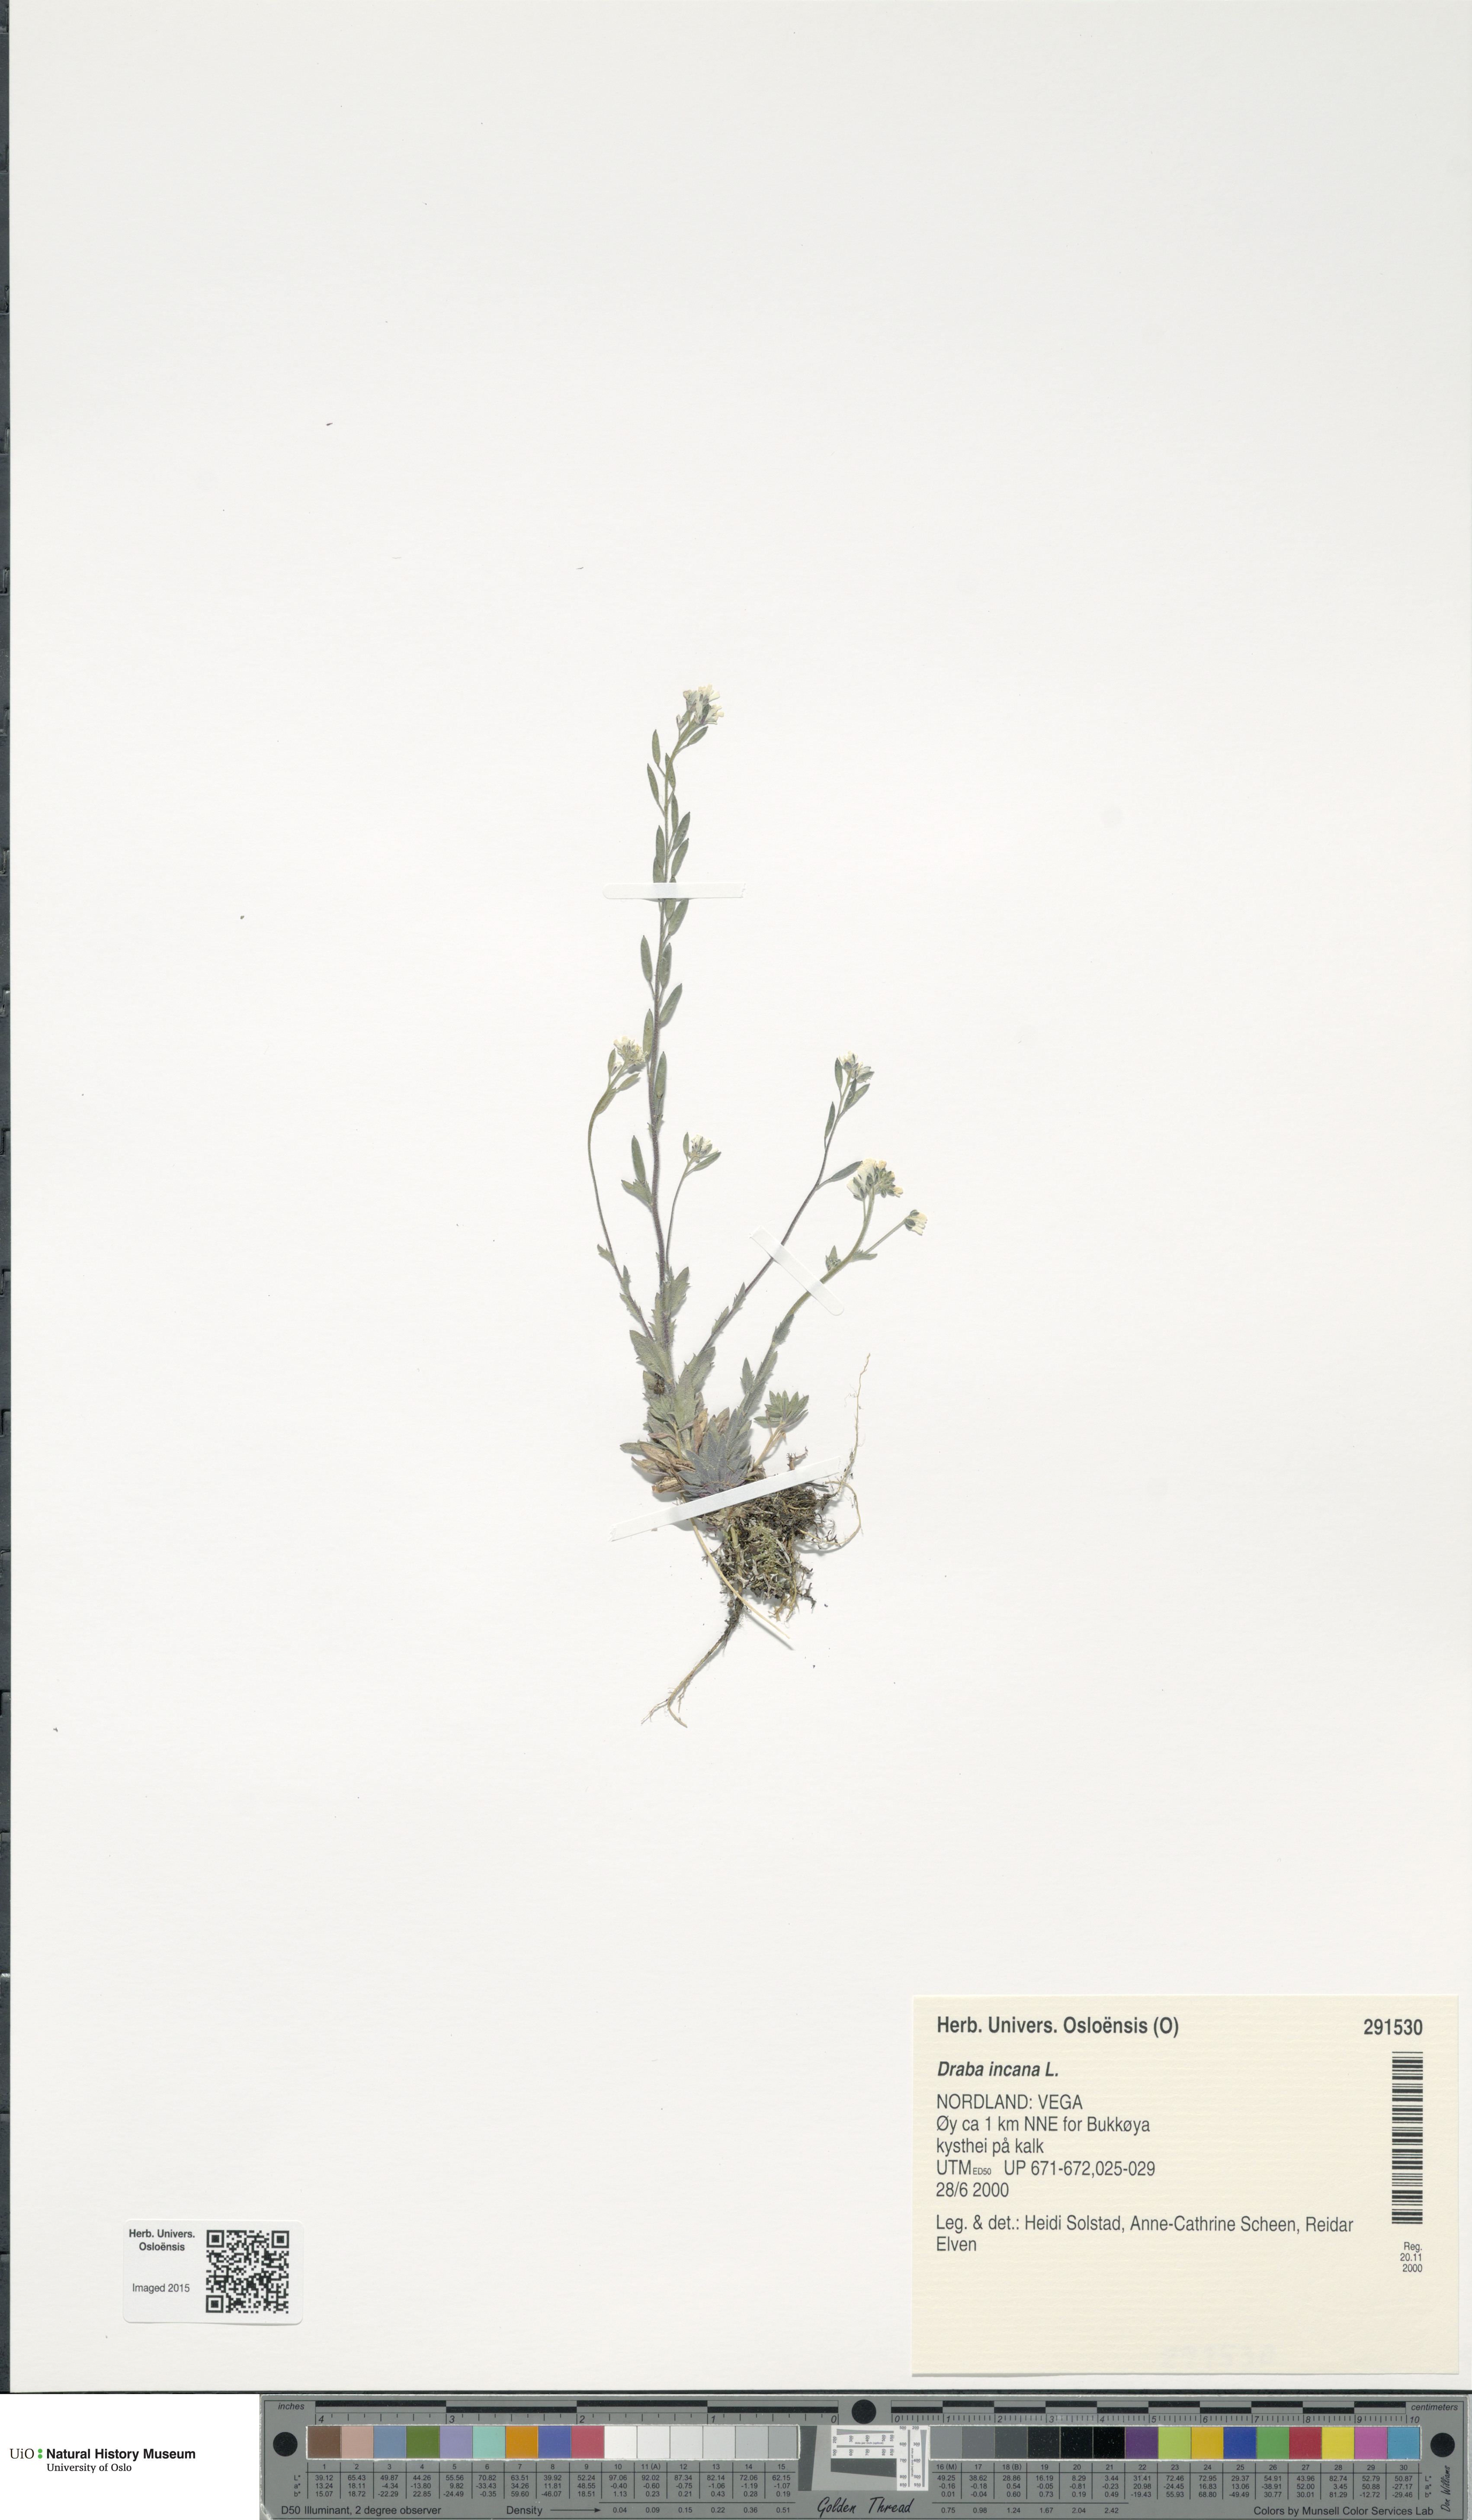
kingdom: Plantae
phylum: Tracheophyta
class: Magnoliopsida
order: Brassicales
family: Brassicaceae
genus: Draba
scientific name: Draba incana
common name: Hoary whitlow-grass
